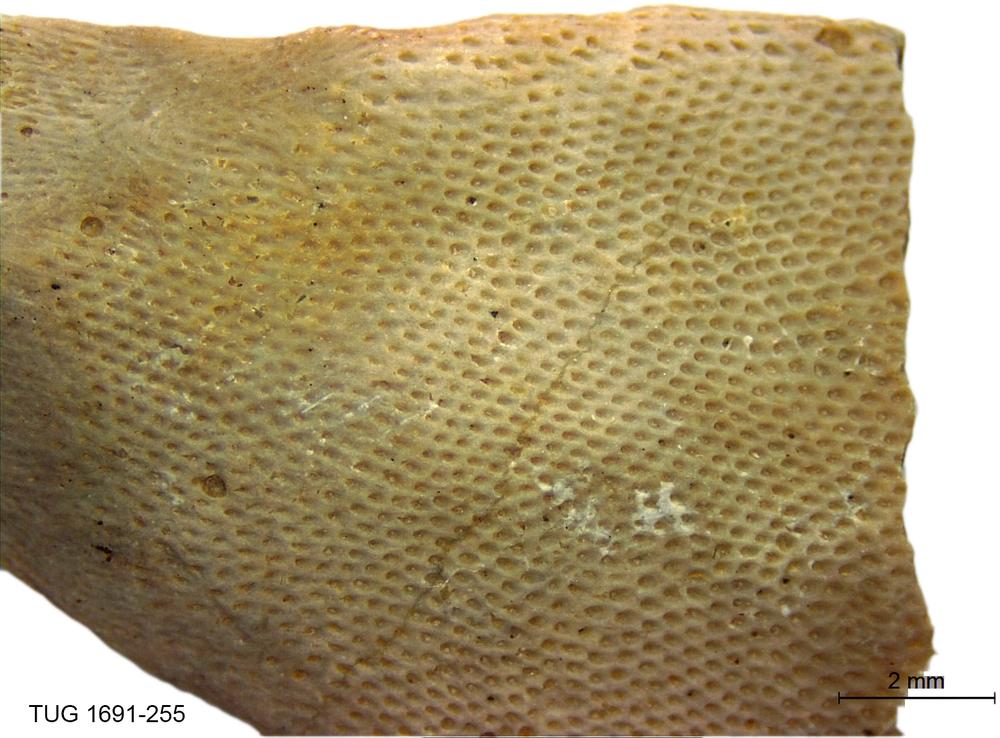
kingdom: Animalia
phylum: Bryozoa
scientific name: Bryozoa
